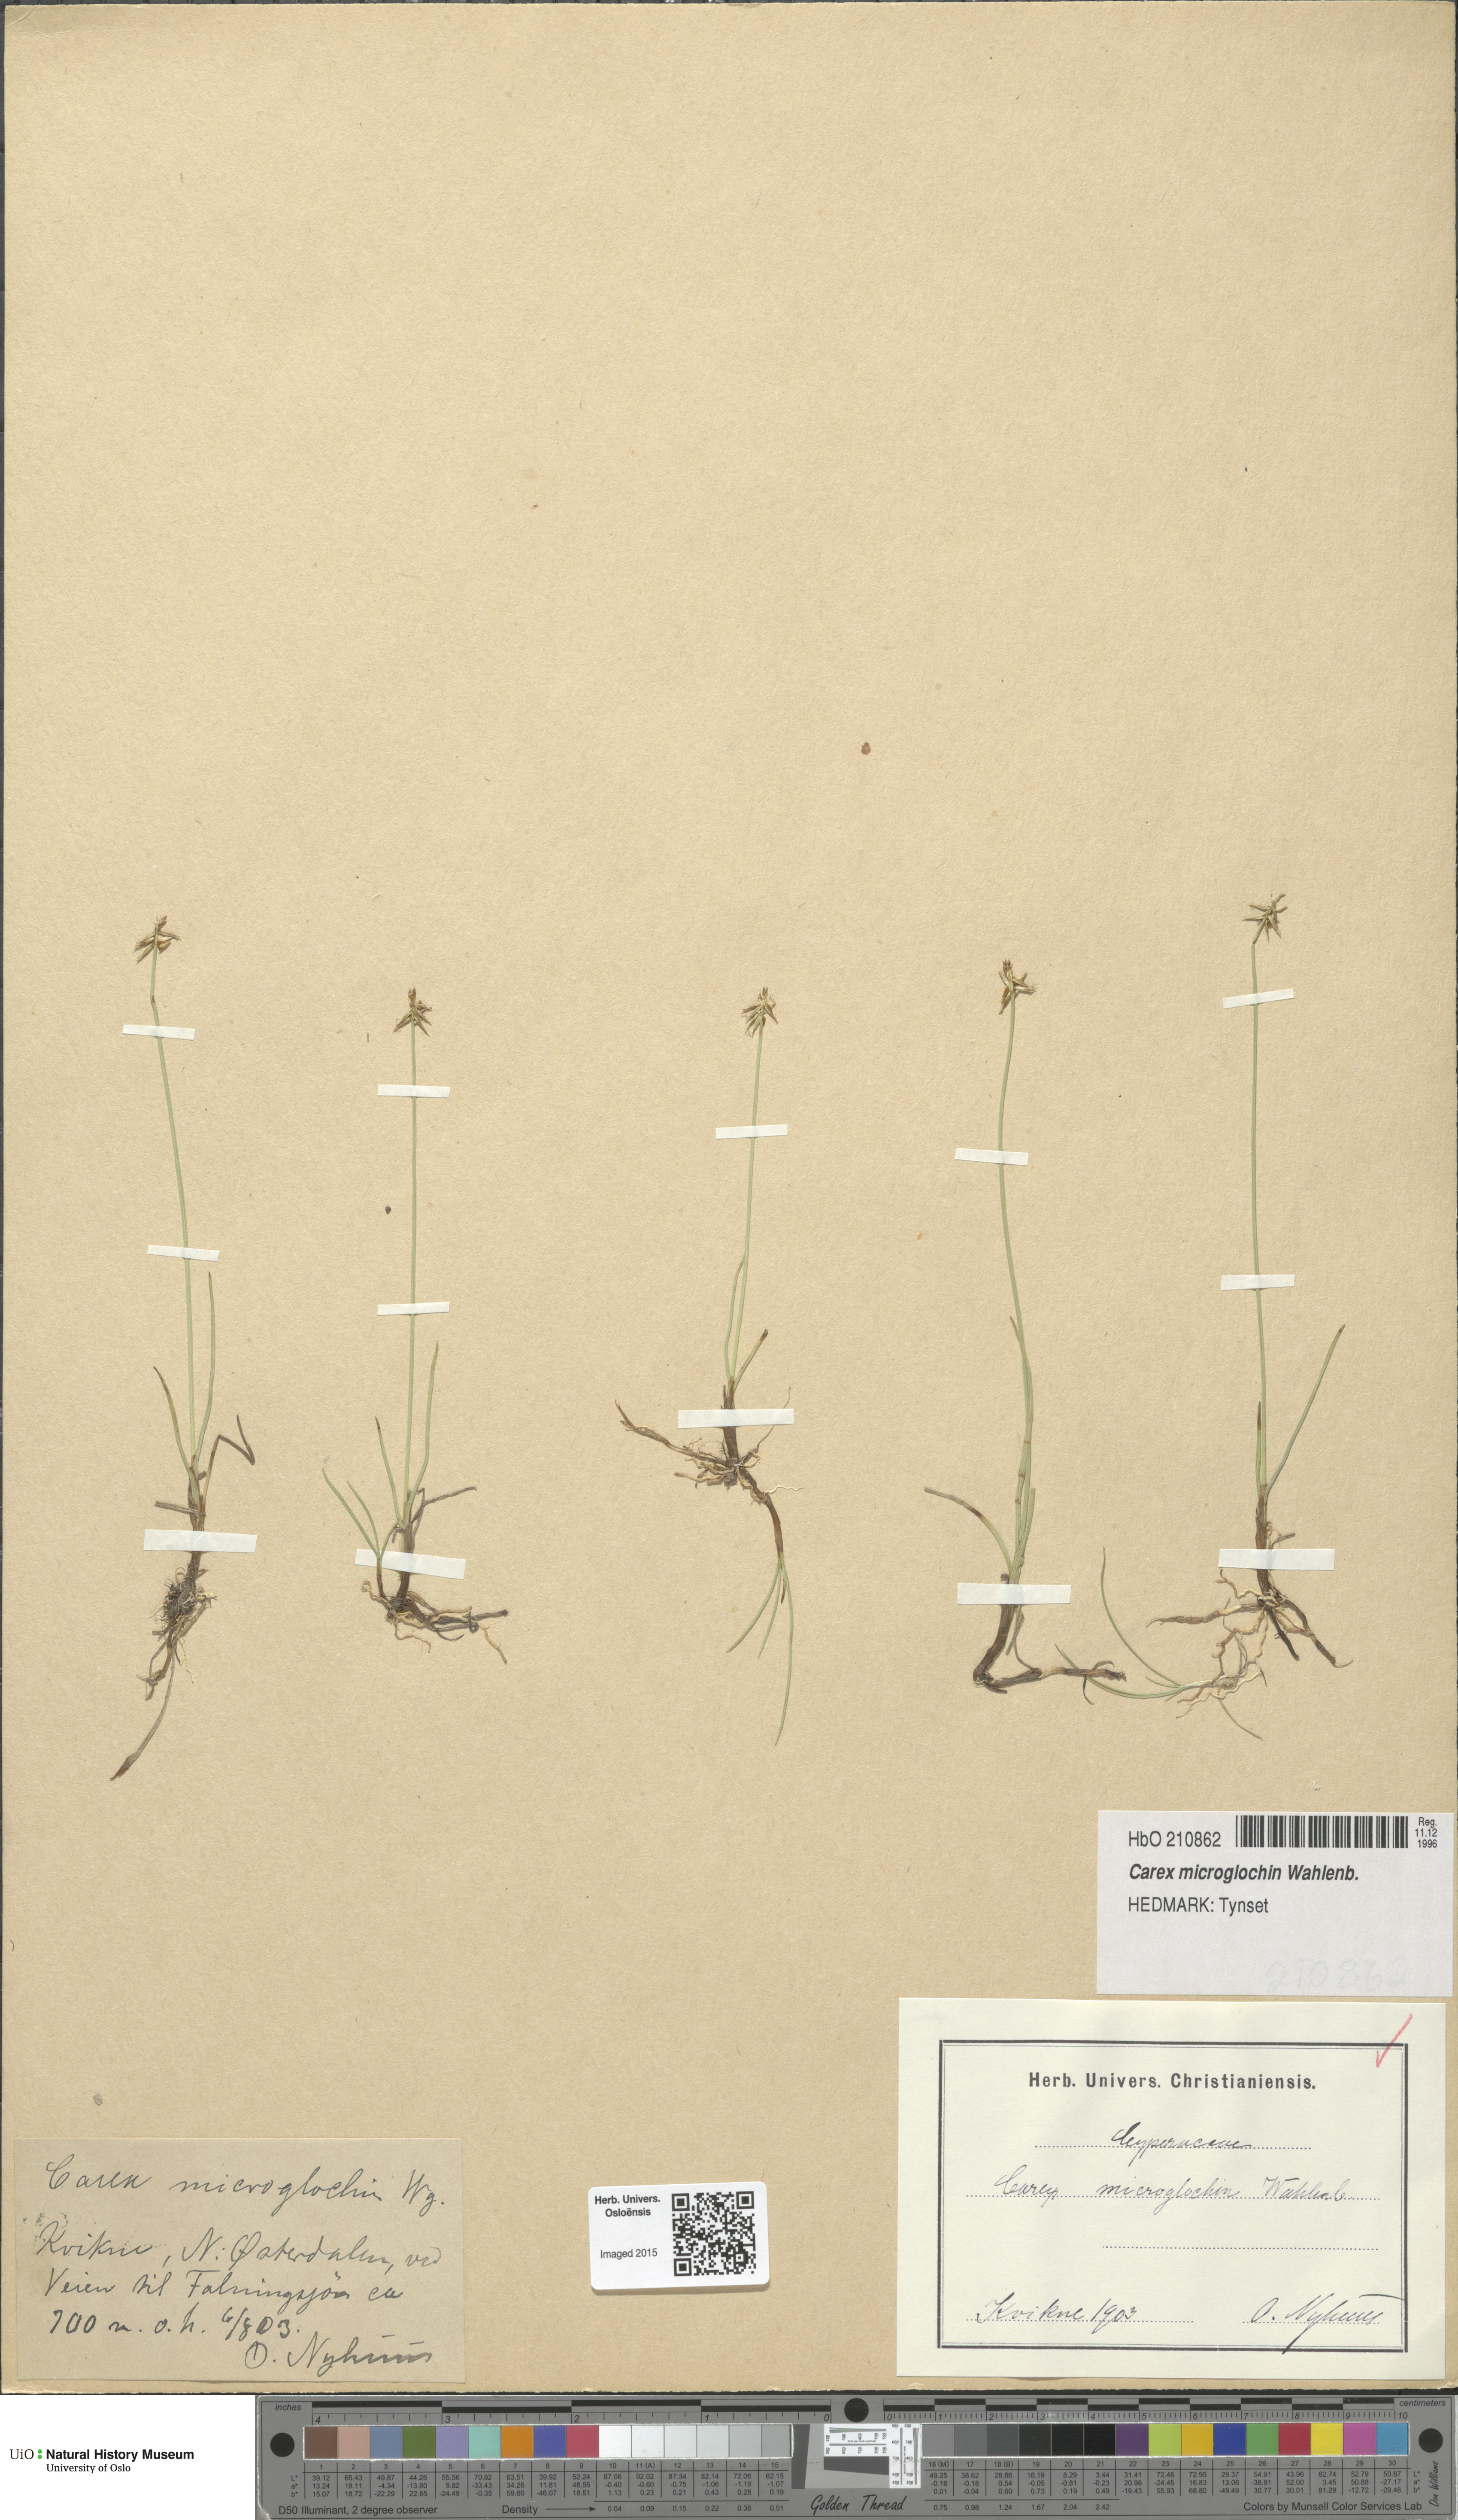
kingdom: Plantae
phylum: Tracheophyta
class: Liliopsida
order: Poales
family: Cyperaceae
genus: Carex
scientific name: Carex microglochin
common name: Bristle sedge
